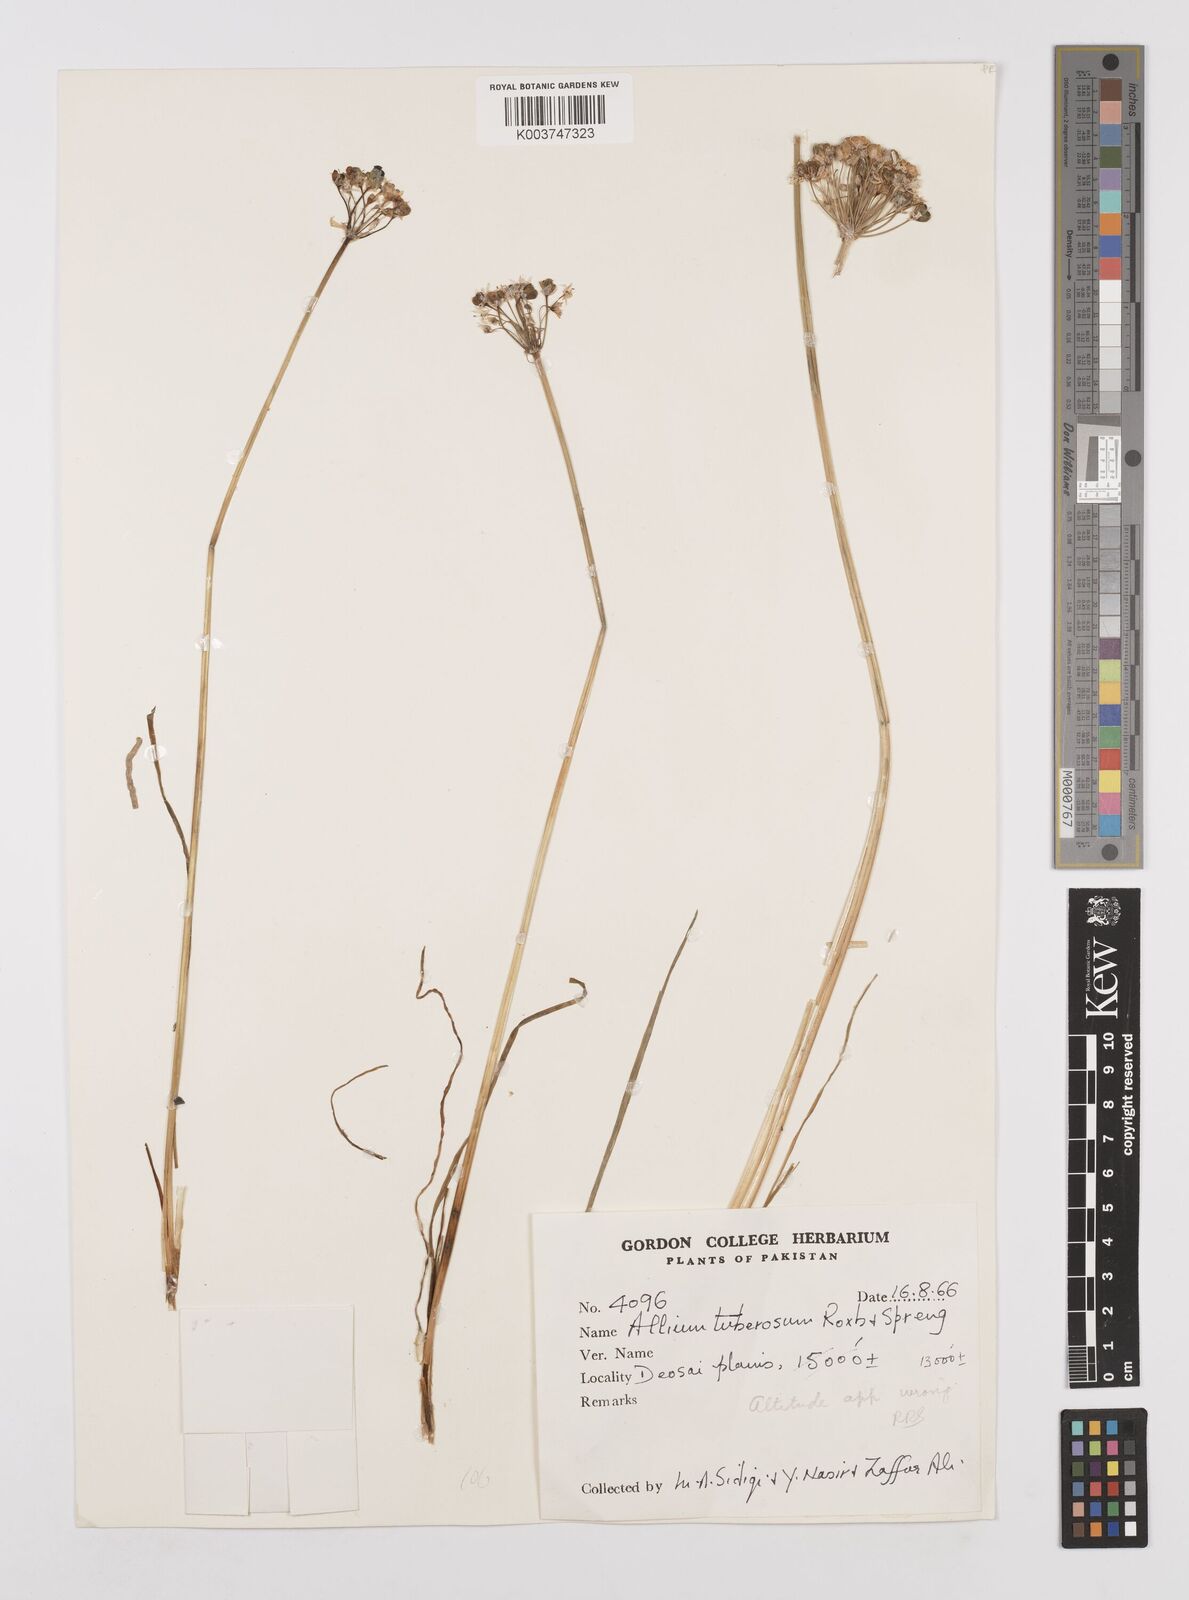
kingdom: Plantae
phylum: Tracheophyta
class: Liliopsida
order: Asparagales
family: Amaryllidaceae
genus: Allium
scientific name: Allium tuberosum
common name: Chinese chives
